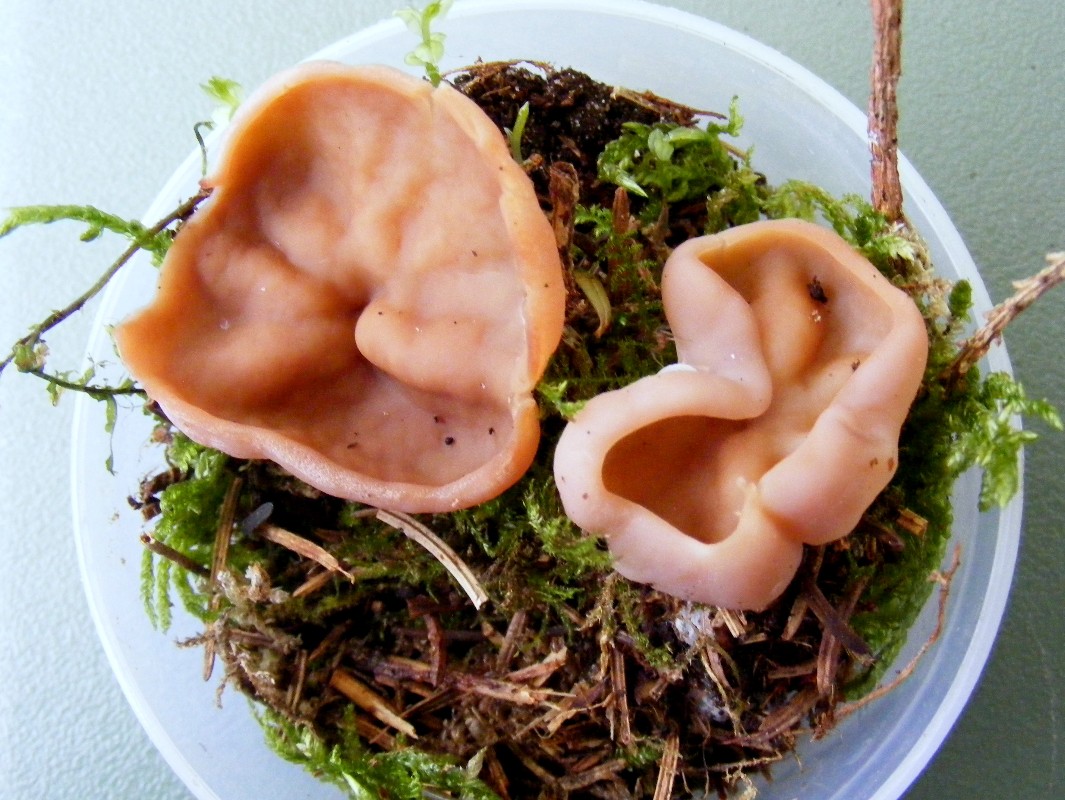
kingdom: Fungi
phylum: Ascomycota
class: Pezizomycetes
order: Pezizales
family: Discinaceae
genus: Discina
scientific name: Discina ancilis
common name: udbredt stenmorkel
